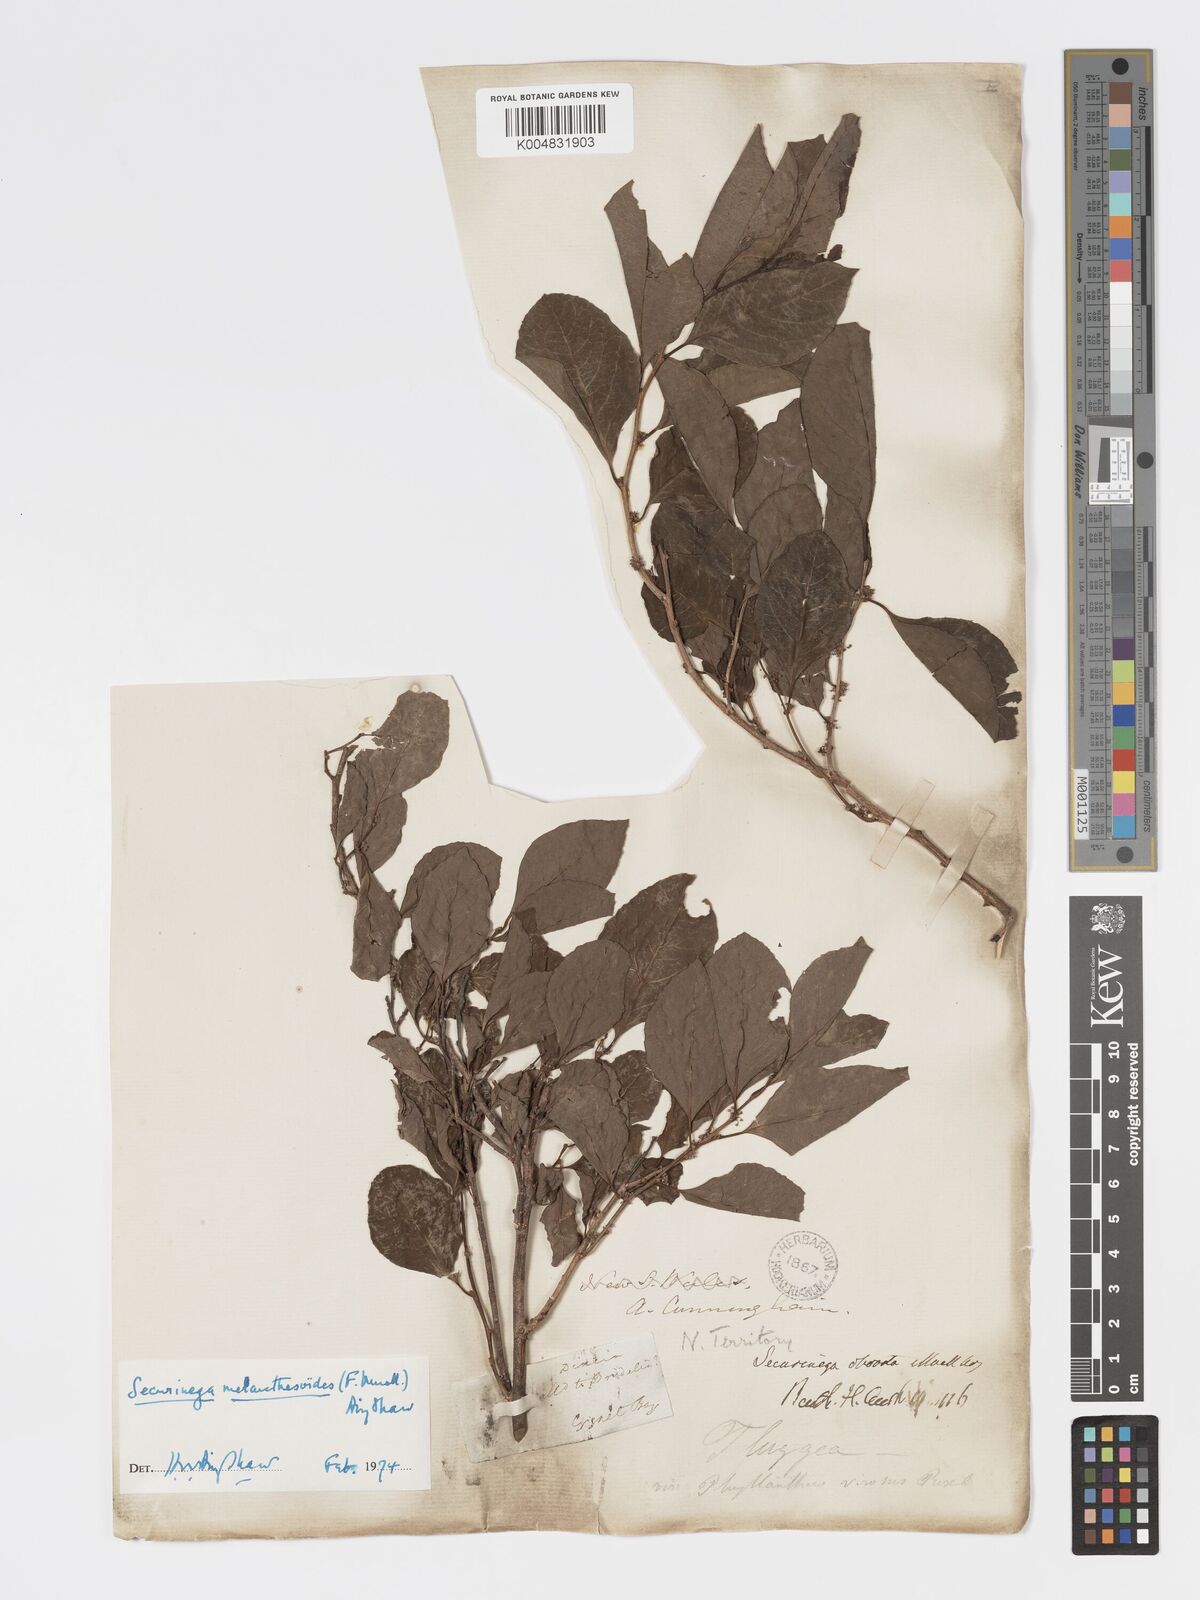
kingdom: Plantae
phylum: Tracheophyta
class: Magnoliopsida
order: Malpighiales
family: Phyllanthaceae
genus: Flueggea
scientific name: Flueggea virosa
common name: Common bushweed
